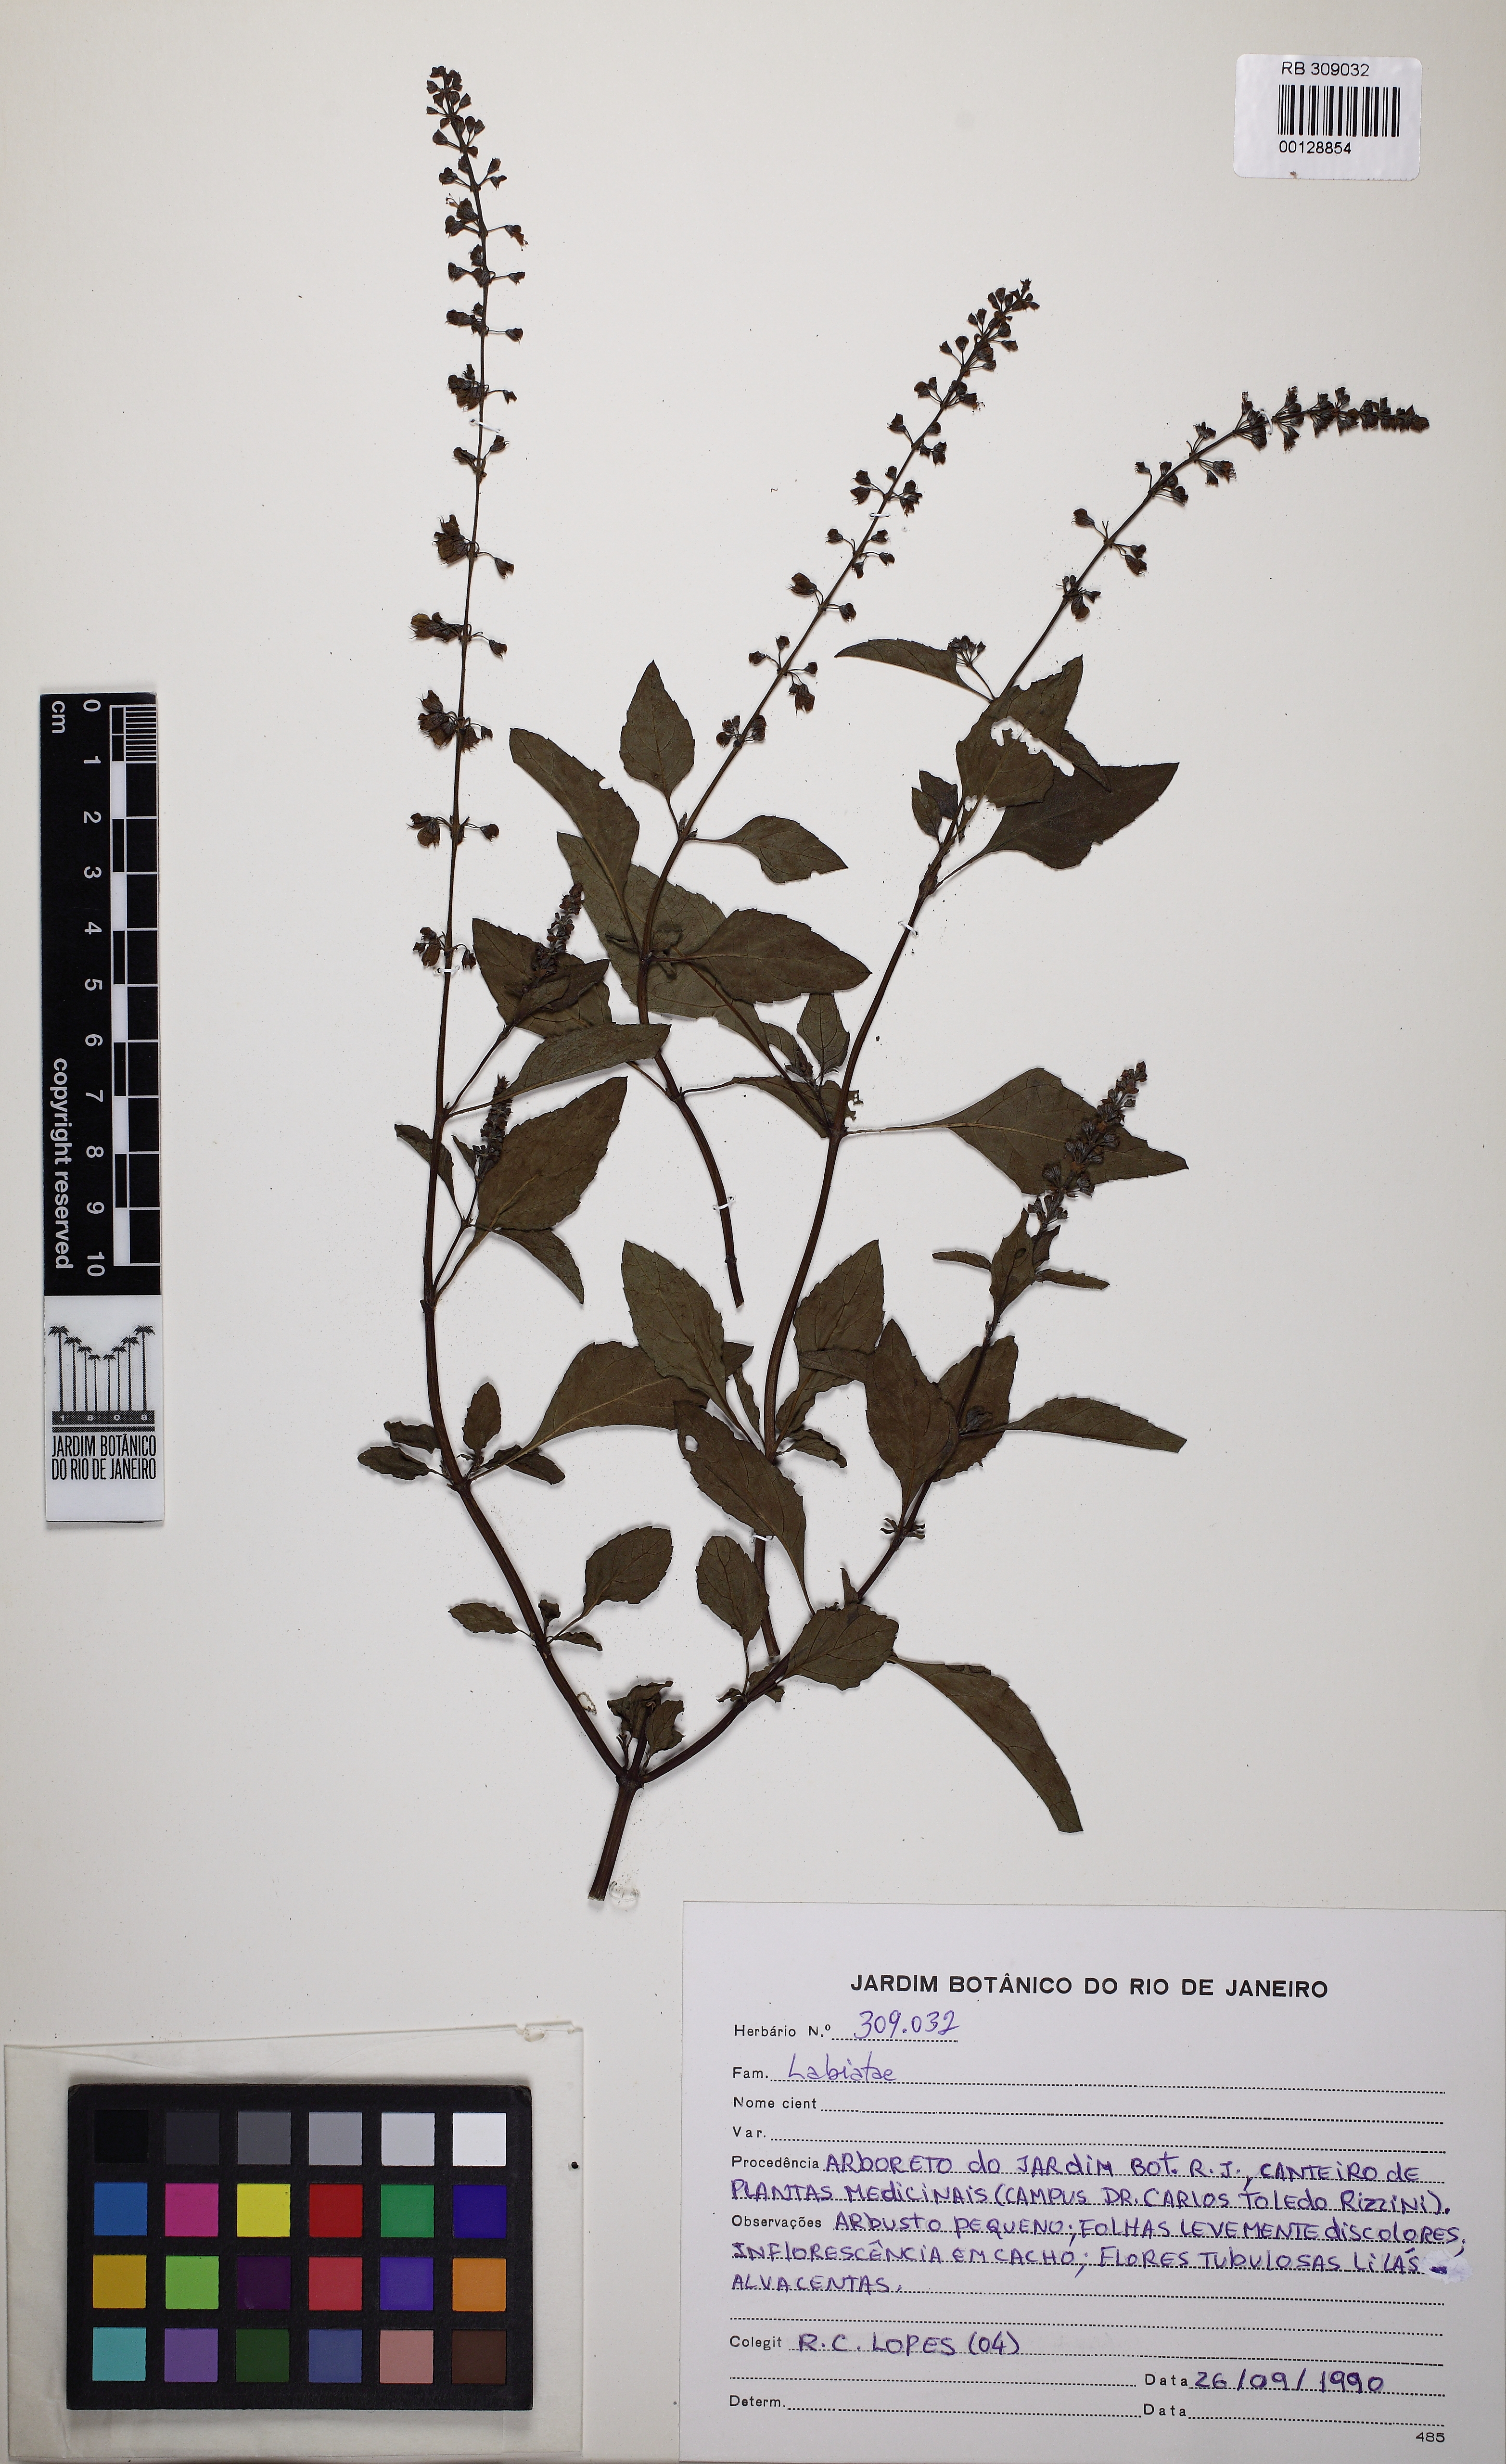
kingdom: Plantae
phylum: Tracheophyta
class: Magnoliopsida
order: Lamiales
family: Lamiaceae
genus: Ocimum
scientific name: Ocimum
